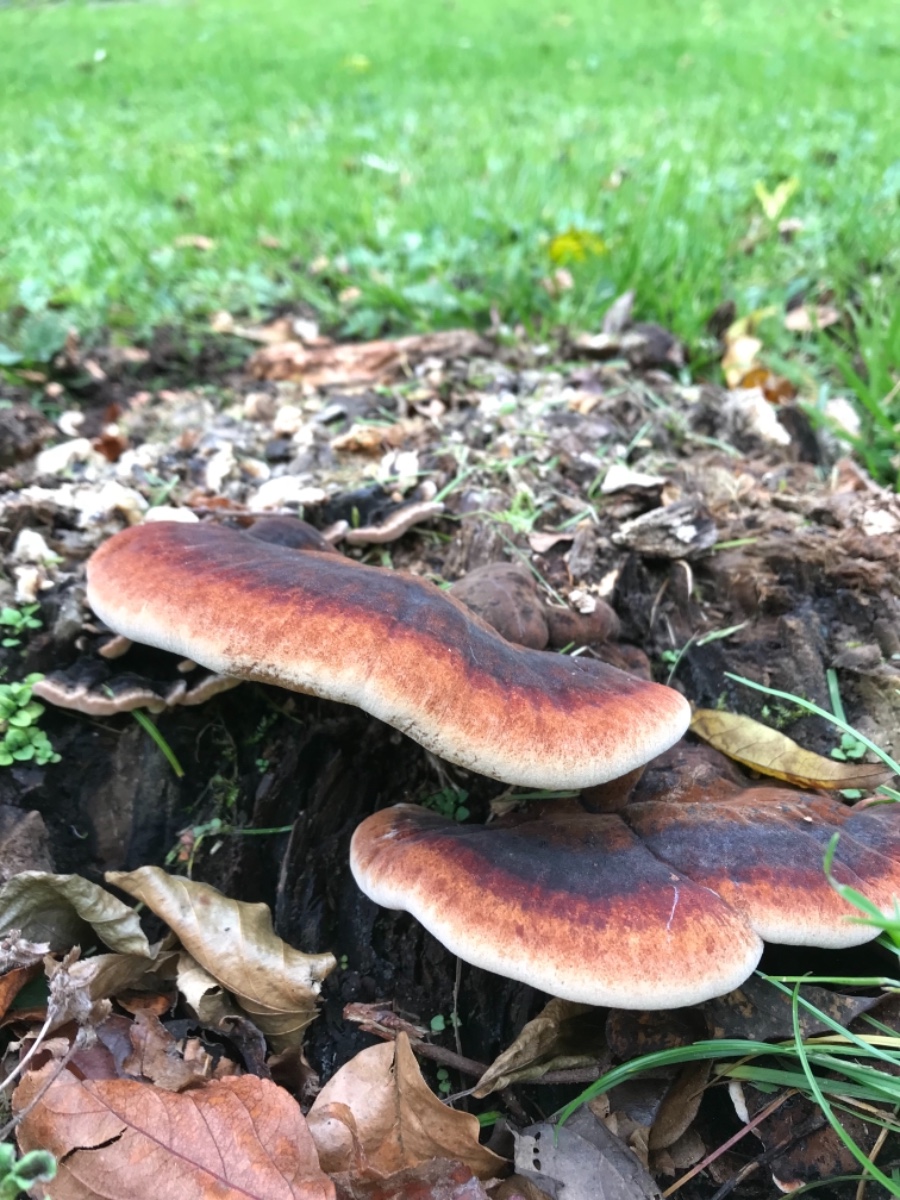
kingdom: Fungi
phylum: Basidiomycota
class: Agaricomycetes
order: Polyporales
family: Ischnodermataceae
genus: Ischnoderma
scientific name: Ischnoderma benzoinum
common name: gran-tjæreporesvamp
